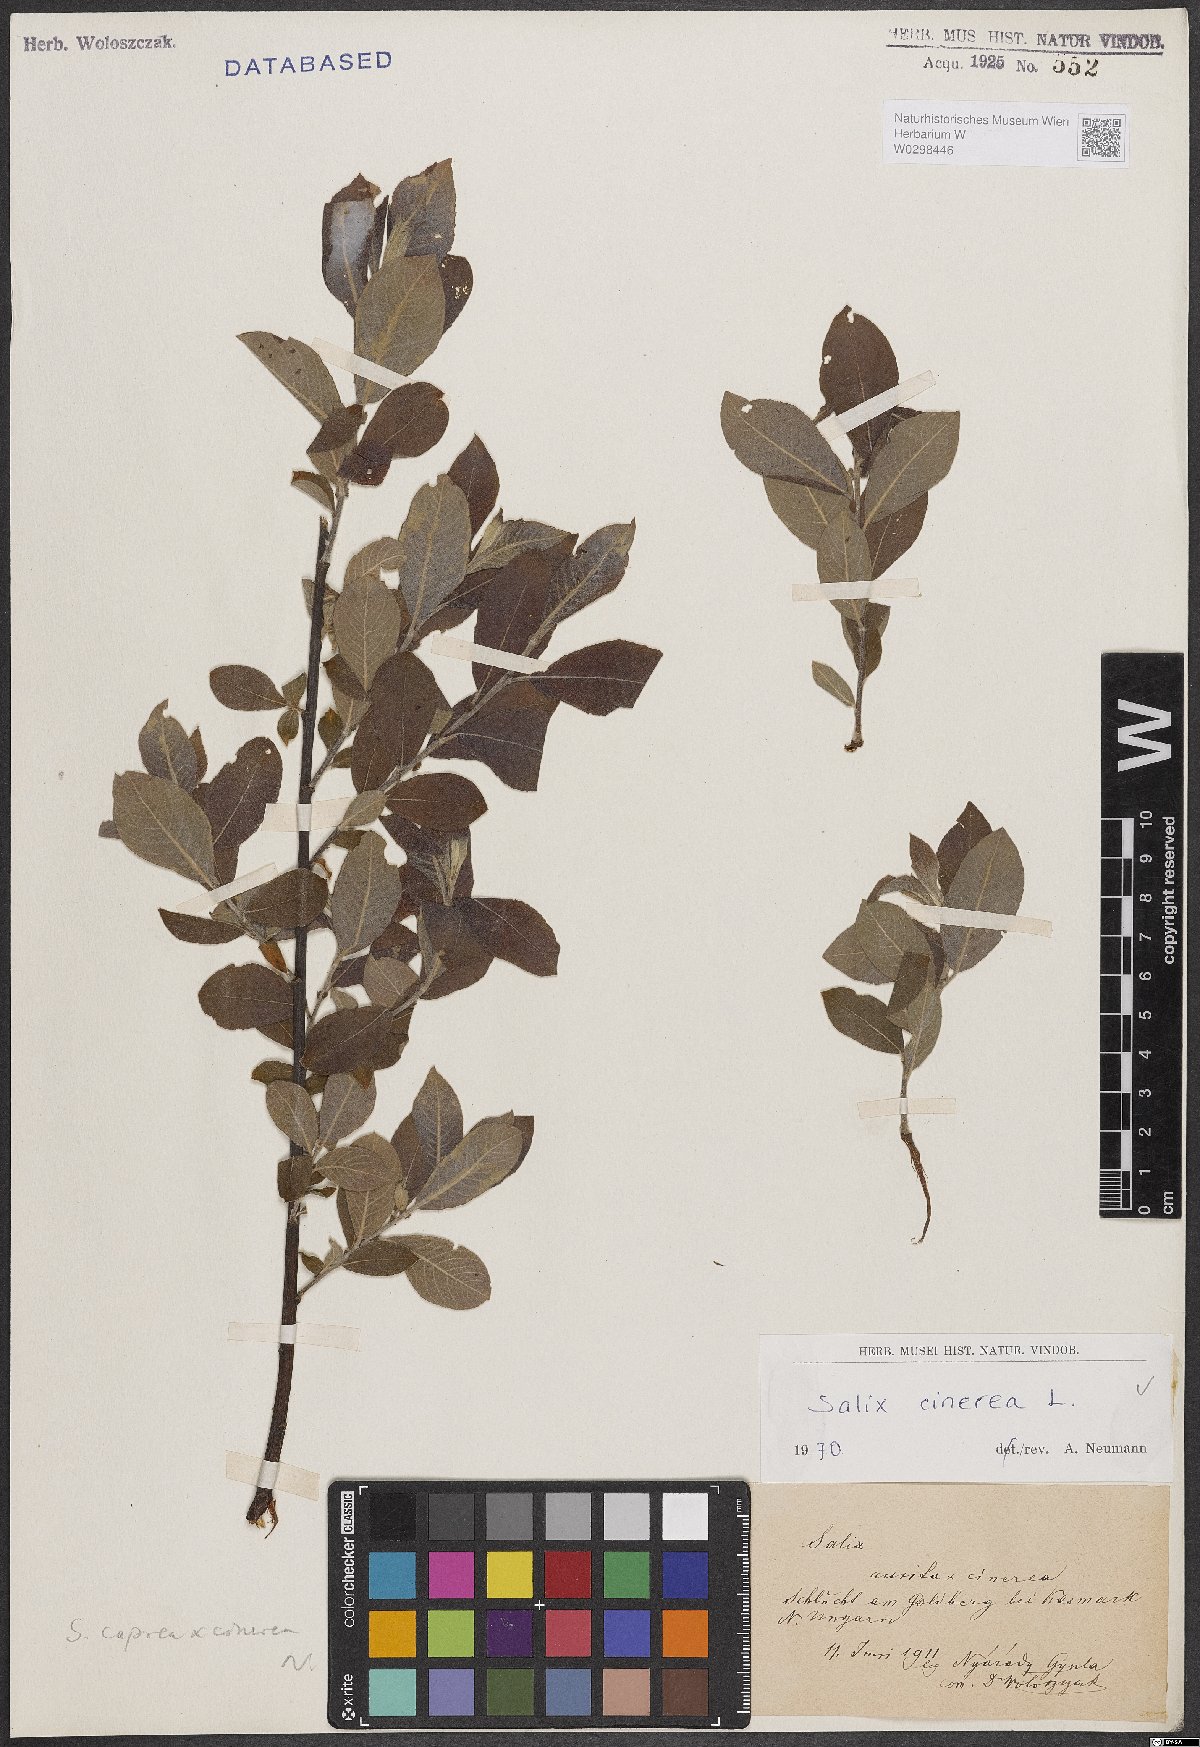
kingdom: Plantae
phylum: Tracheophyta
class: Magnoliopsida
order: Malpighiales
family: Salicaceae
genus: Salix
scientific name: Salix cinerea
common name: Common sallow
